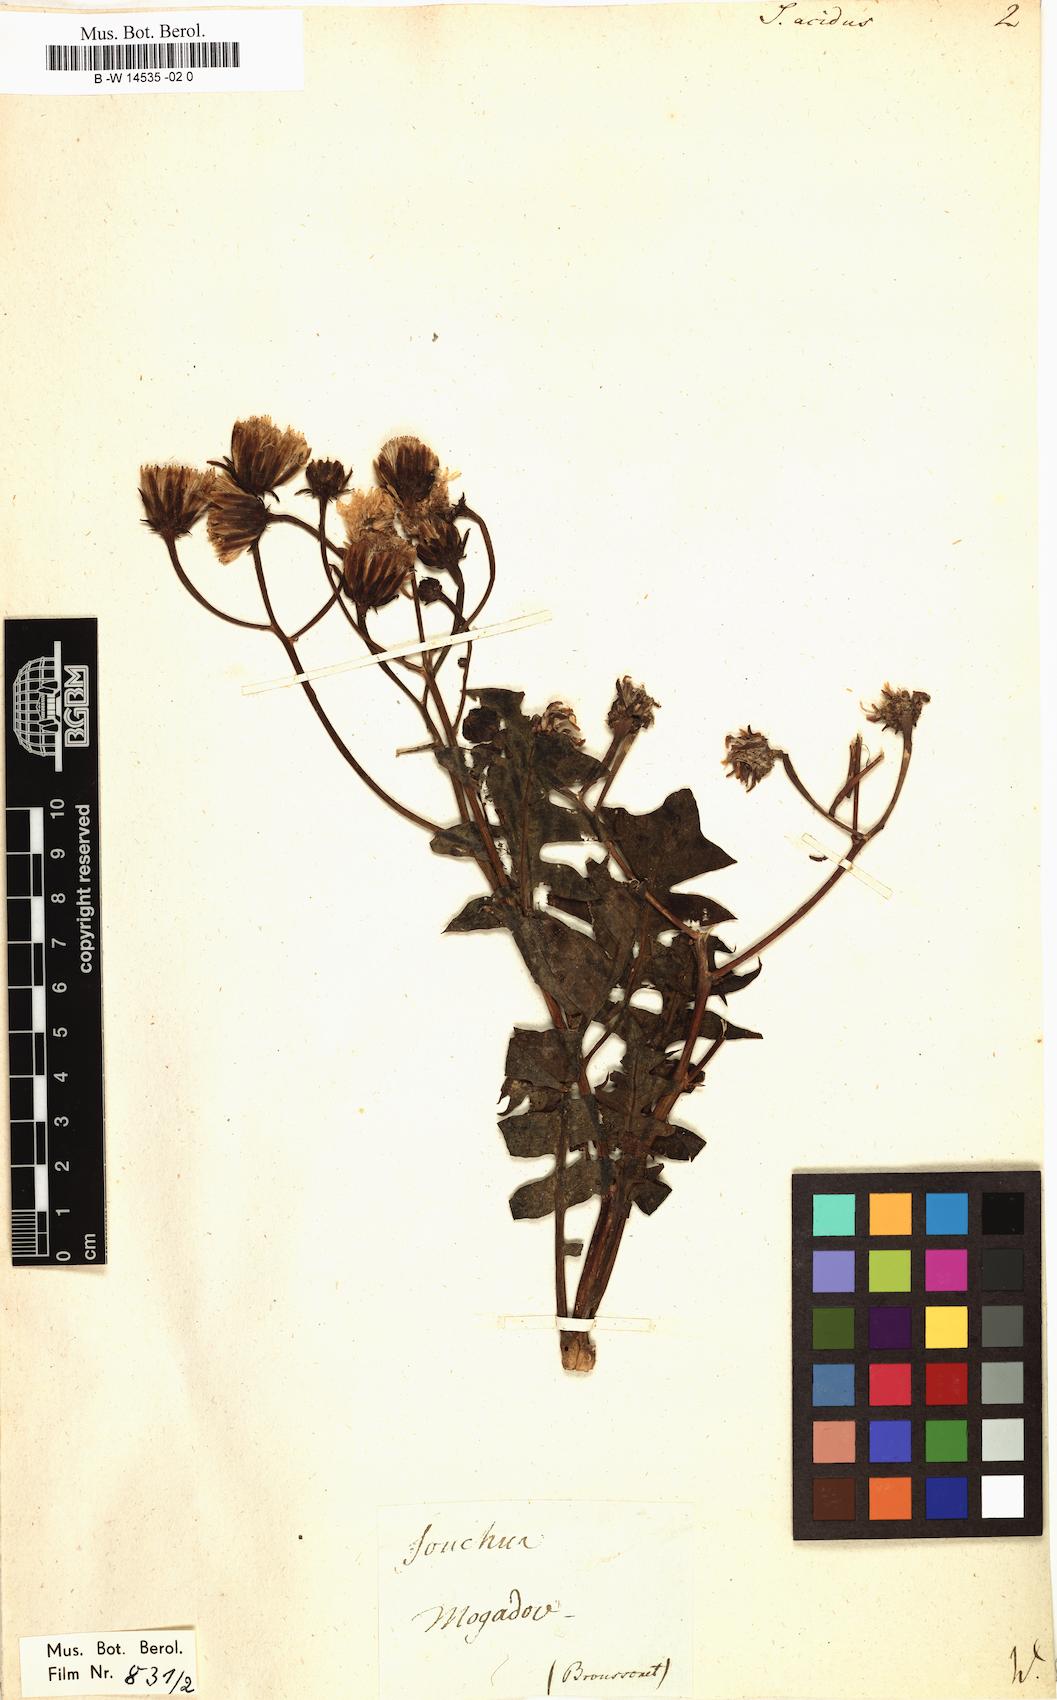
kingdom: Plantae
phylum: Tracheophyta
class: Magnoliopsida
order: Asterales
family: Asteraceae
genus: Sonchus
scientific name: Sonchus pinnatifidus
